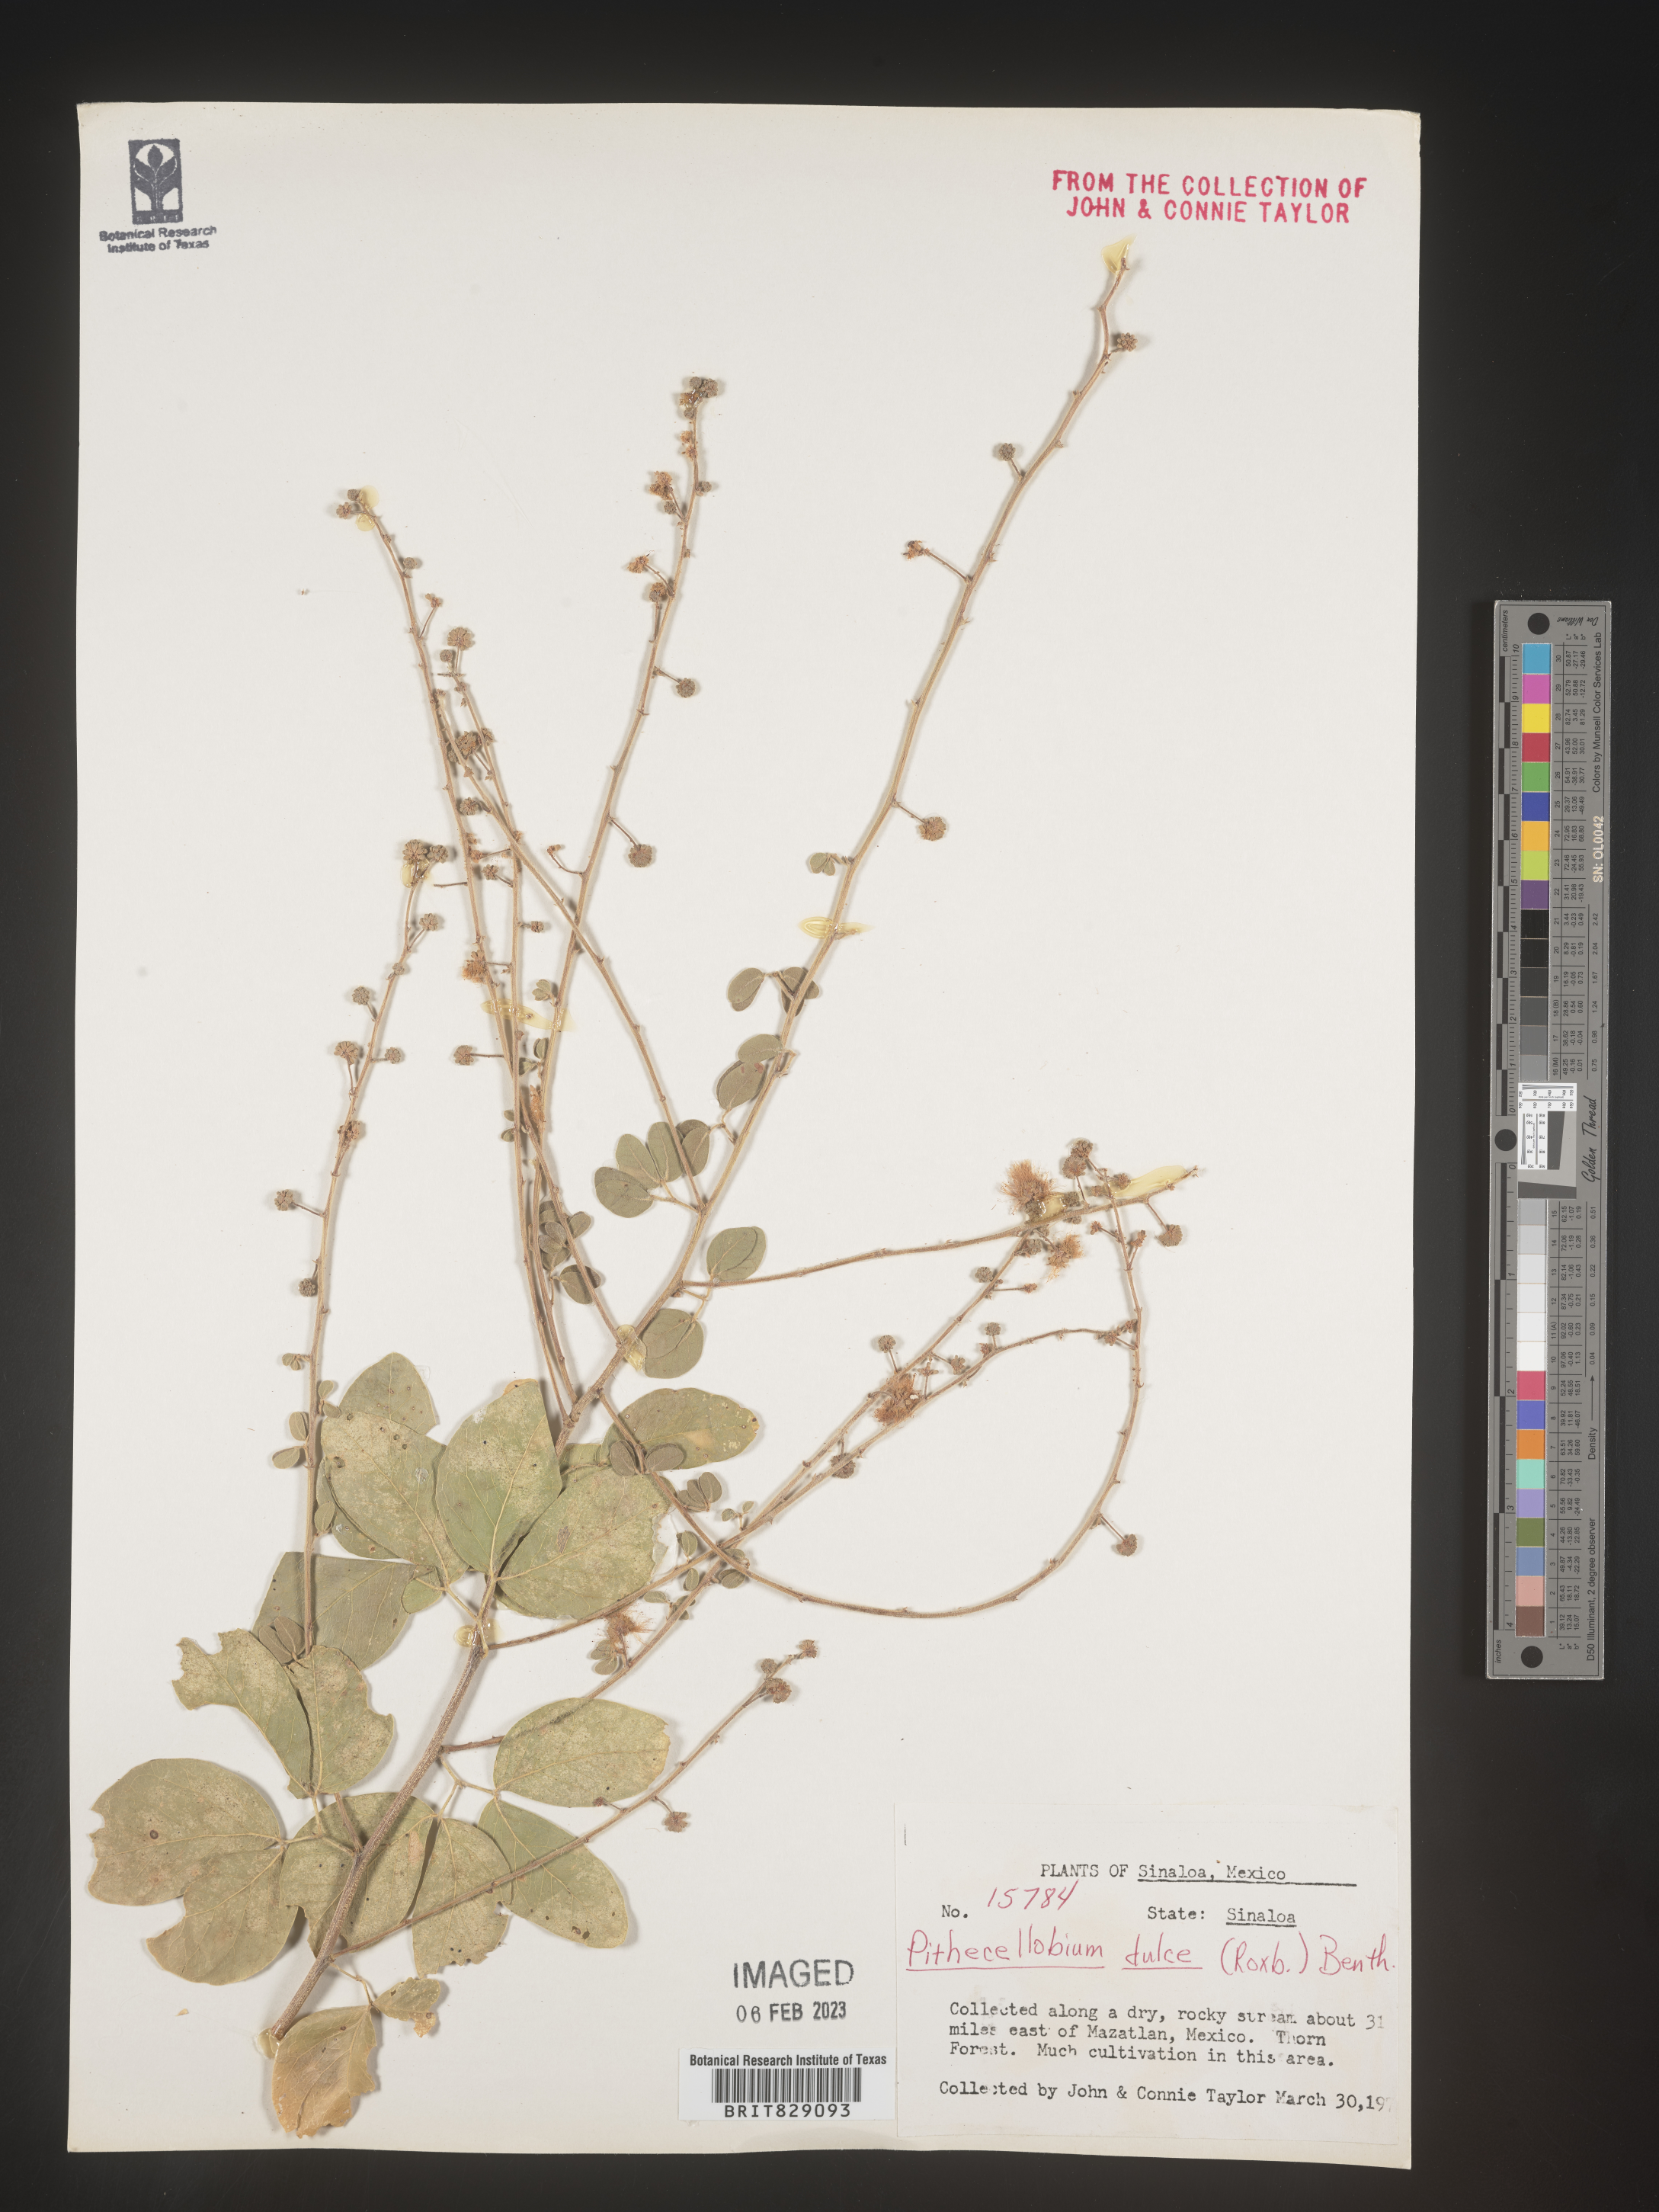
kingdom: Plantae
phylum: Tracheophyta
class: Magnoliopsida
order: Fabales
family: Fabaceae
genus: Pithecellobium
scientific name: Pithecellobium
